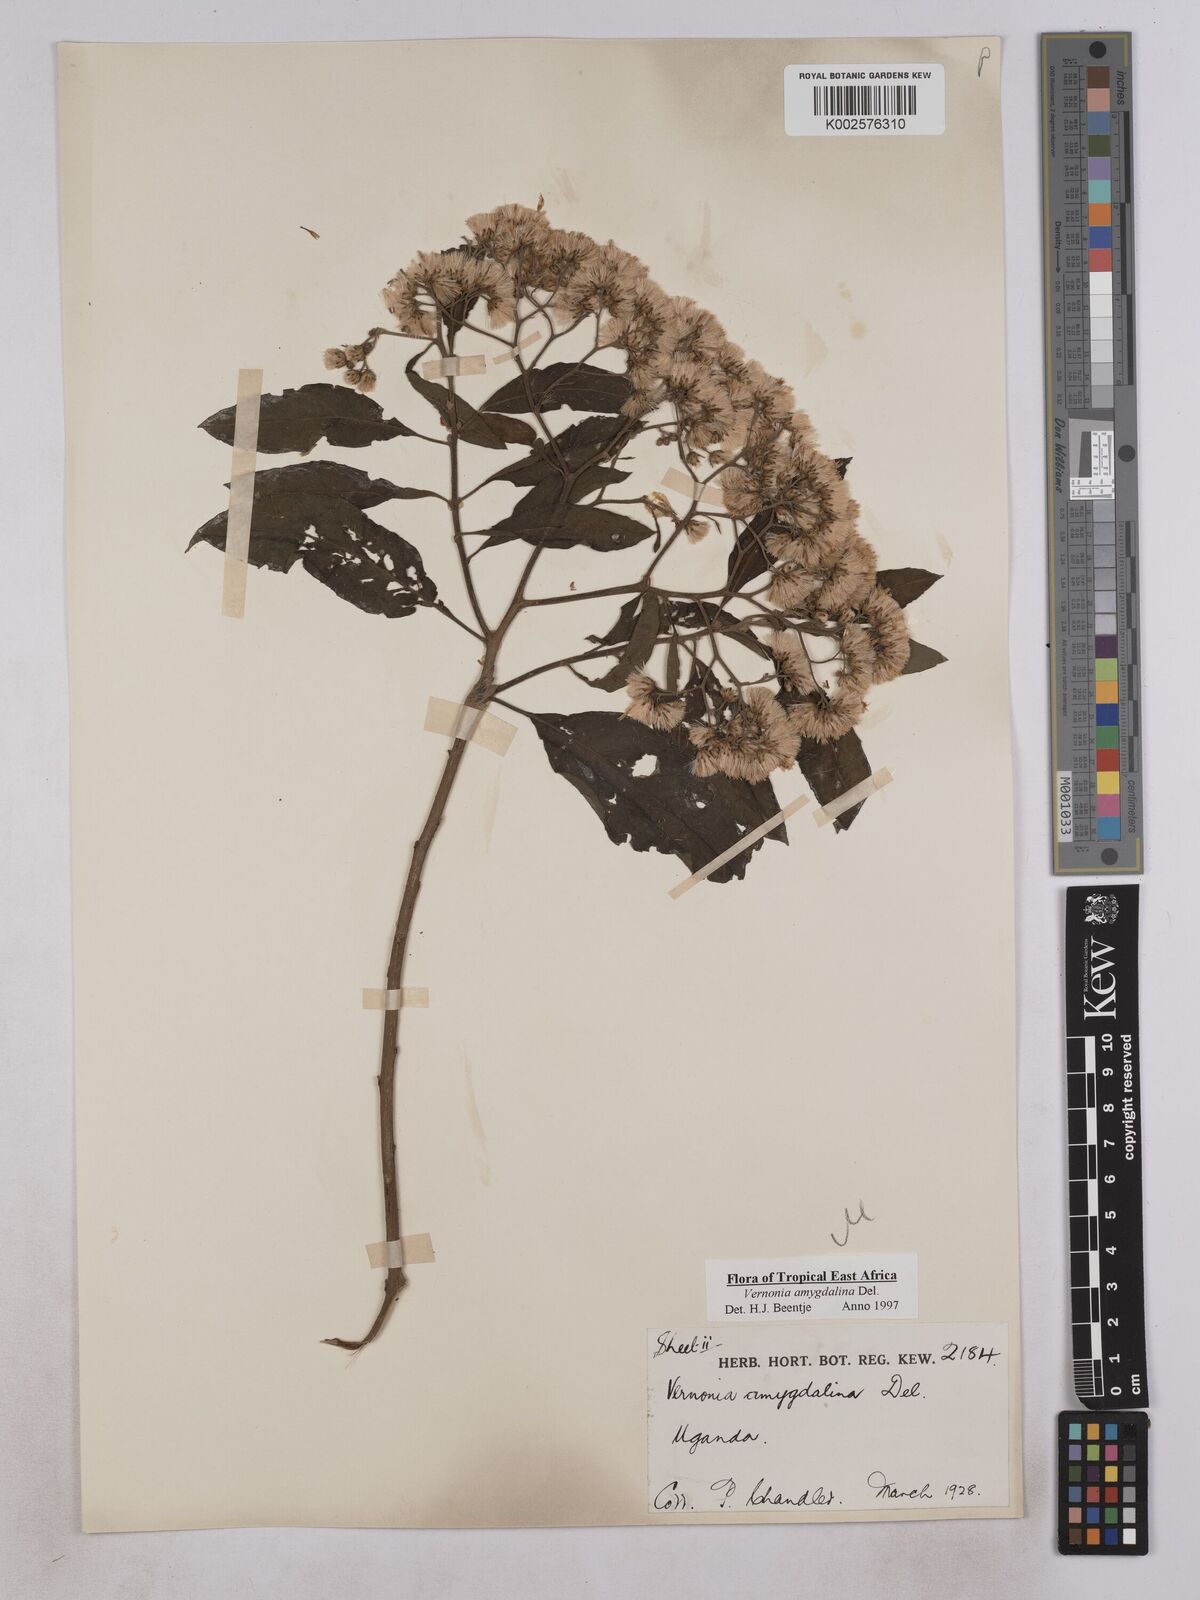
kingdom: Plantae
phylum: Tracheophyta
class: Magnoliopsida
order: Asterales
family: Asteraceae
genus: Gymnanthemum
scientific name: Gymnanthemum amygdalinum
